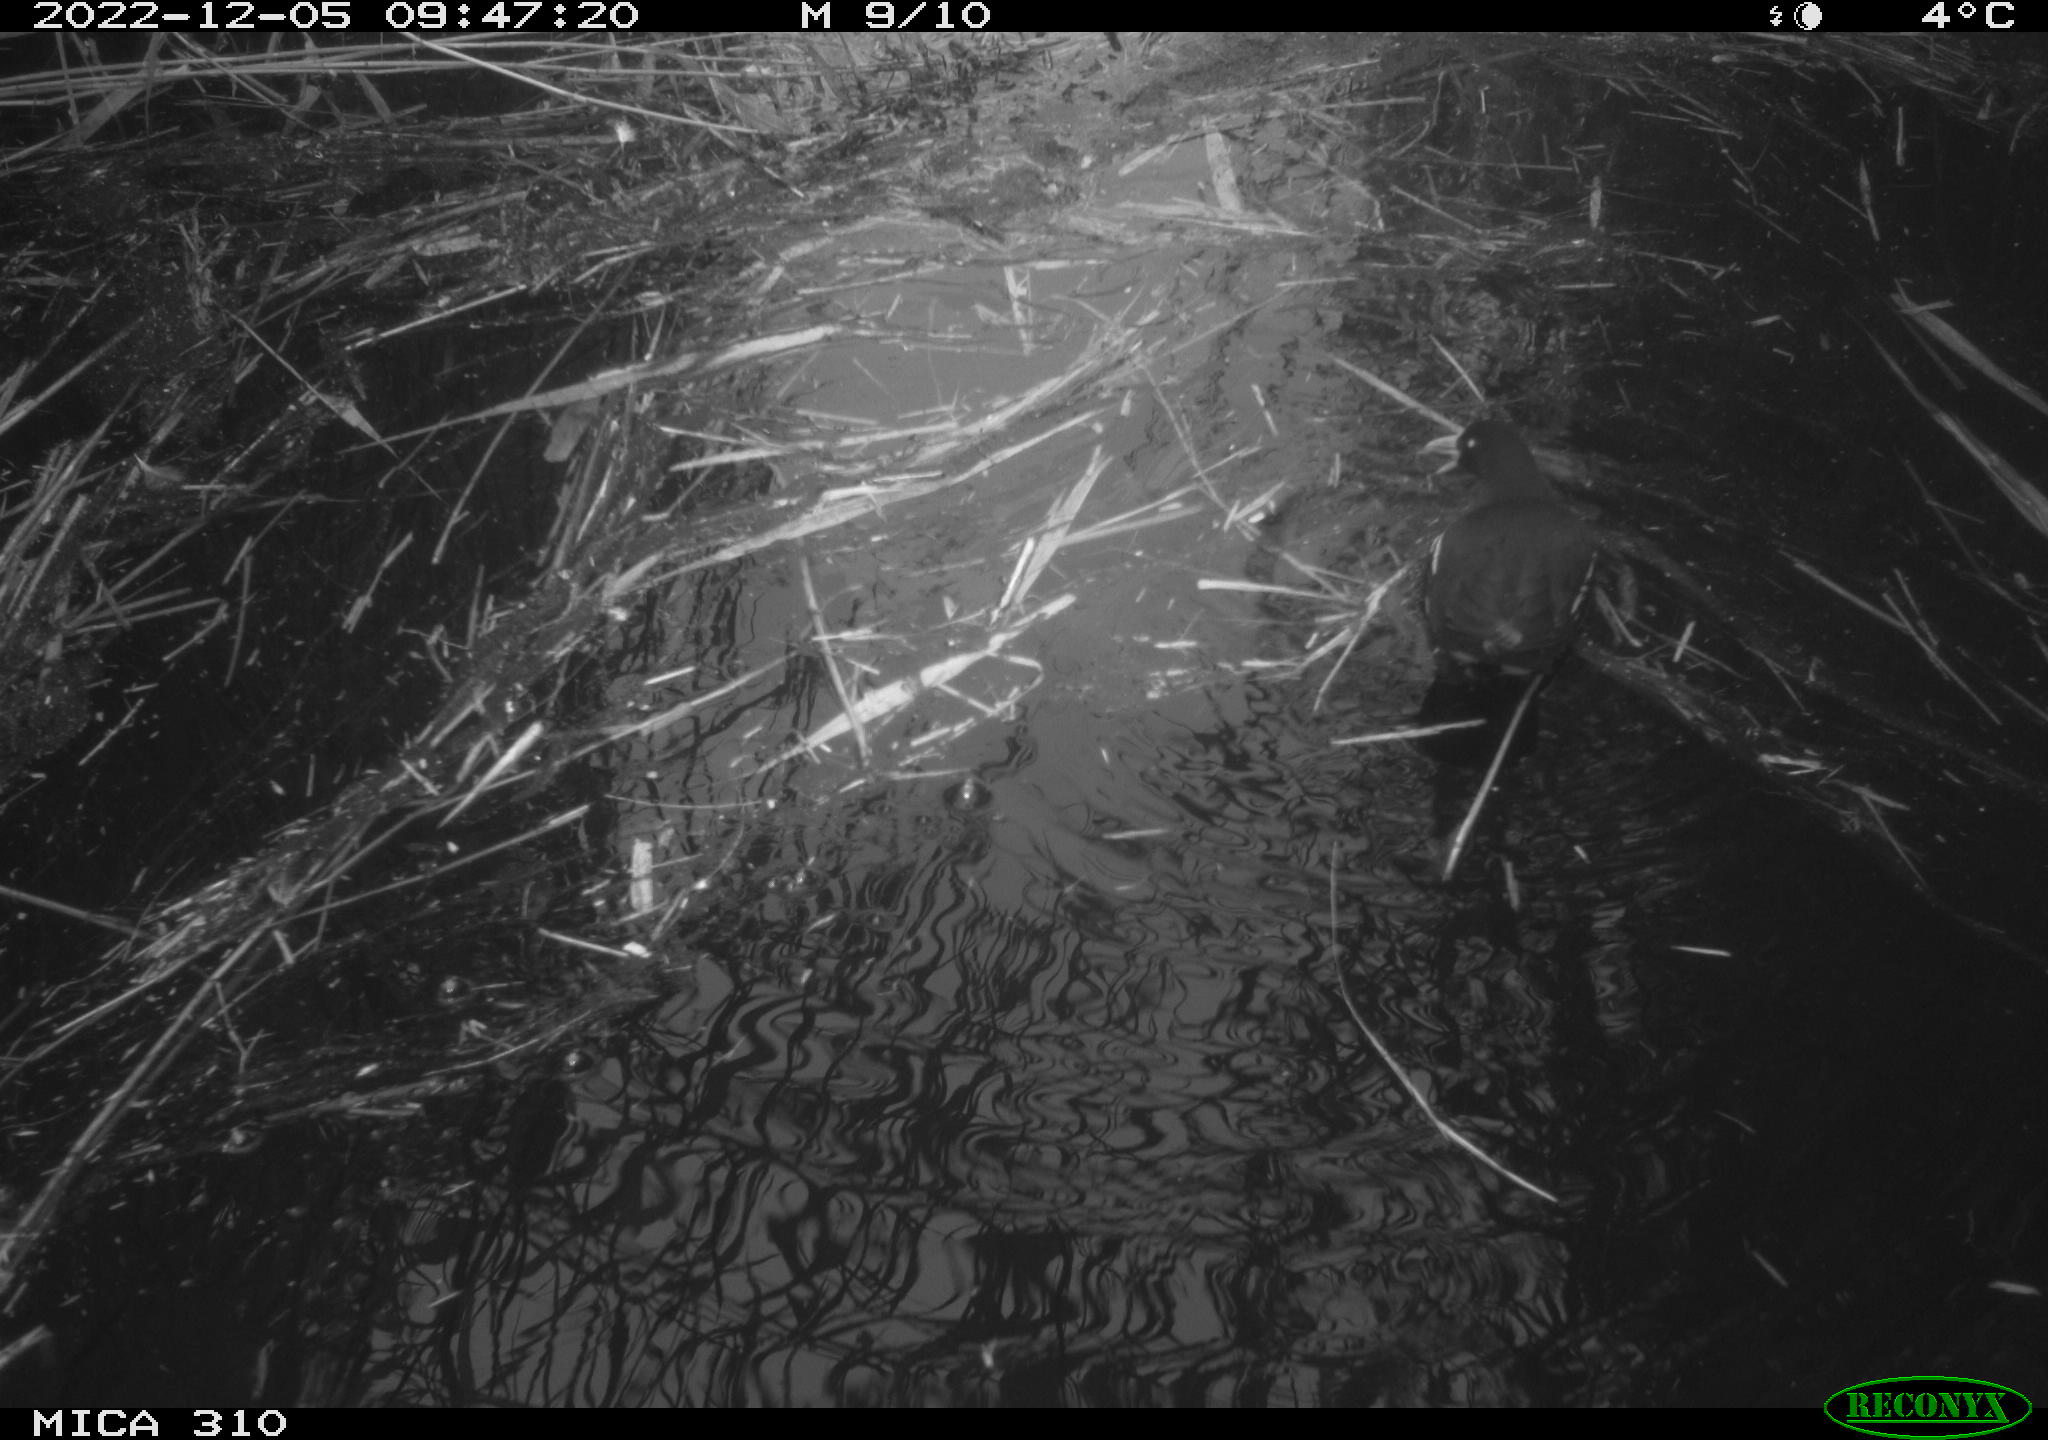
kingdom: Animalia
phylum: Chordata
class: Aves
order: Gruiformes
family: Rallidae
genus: Gallinula
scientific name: Gallinula chloropus
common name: Common moorhen
